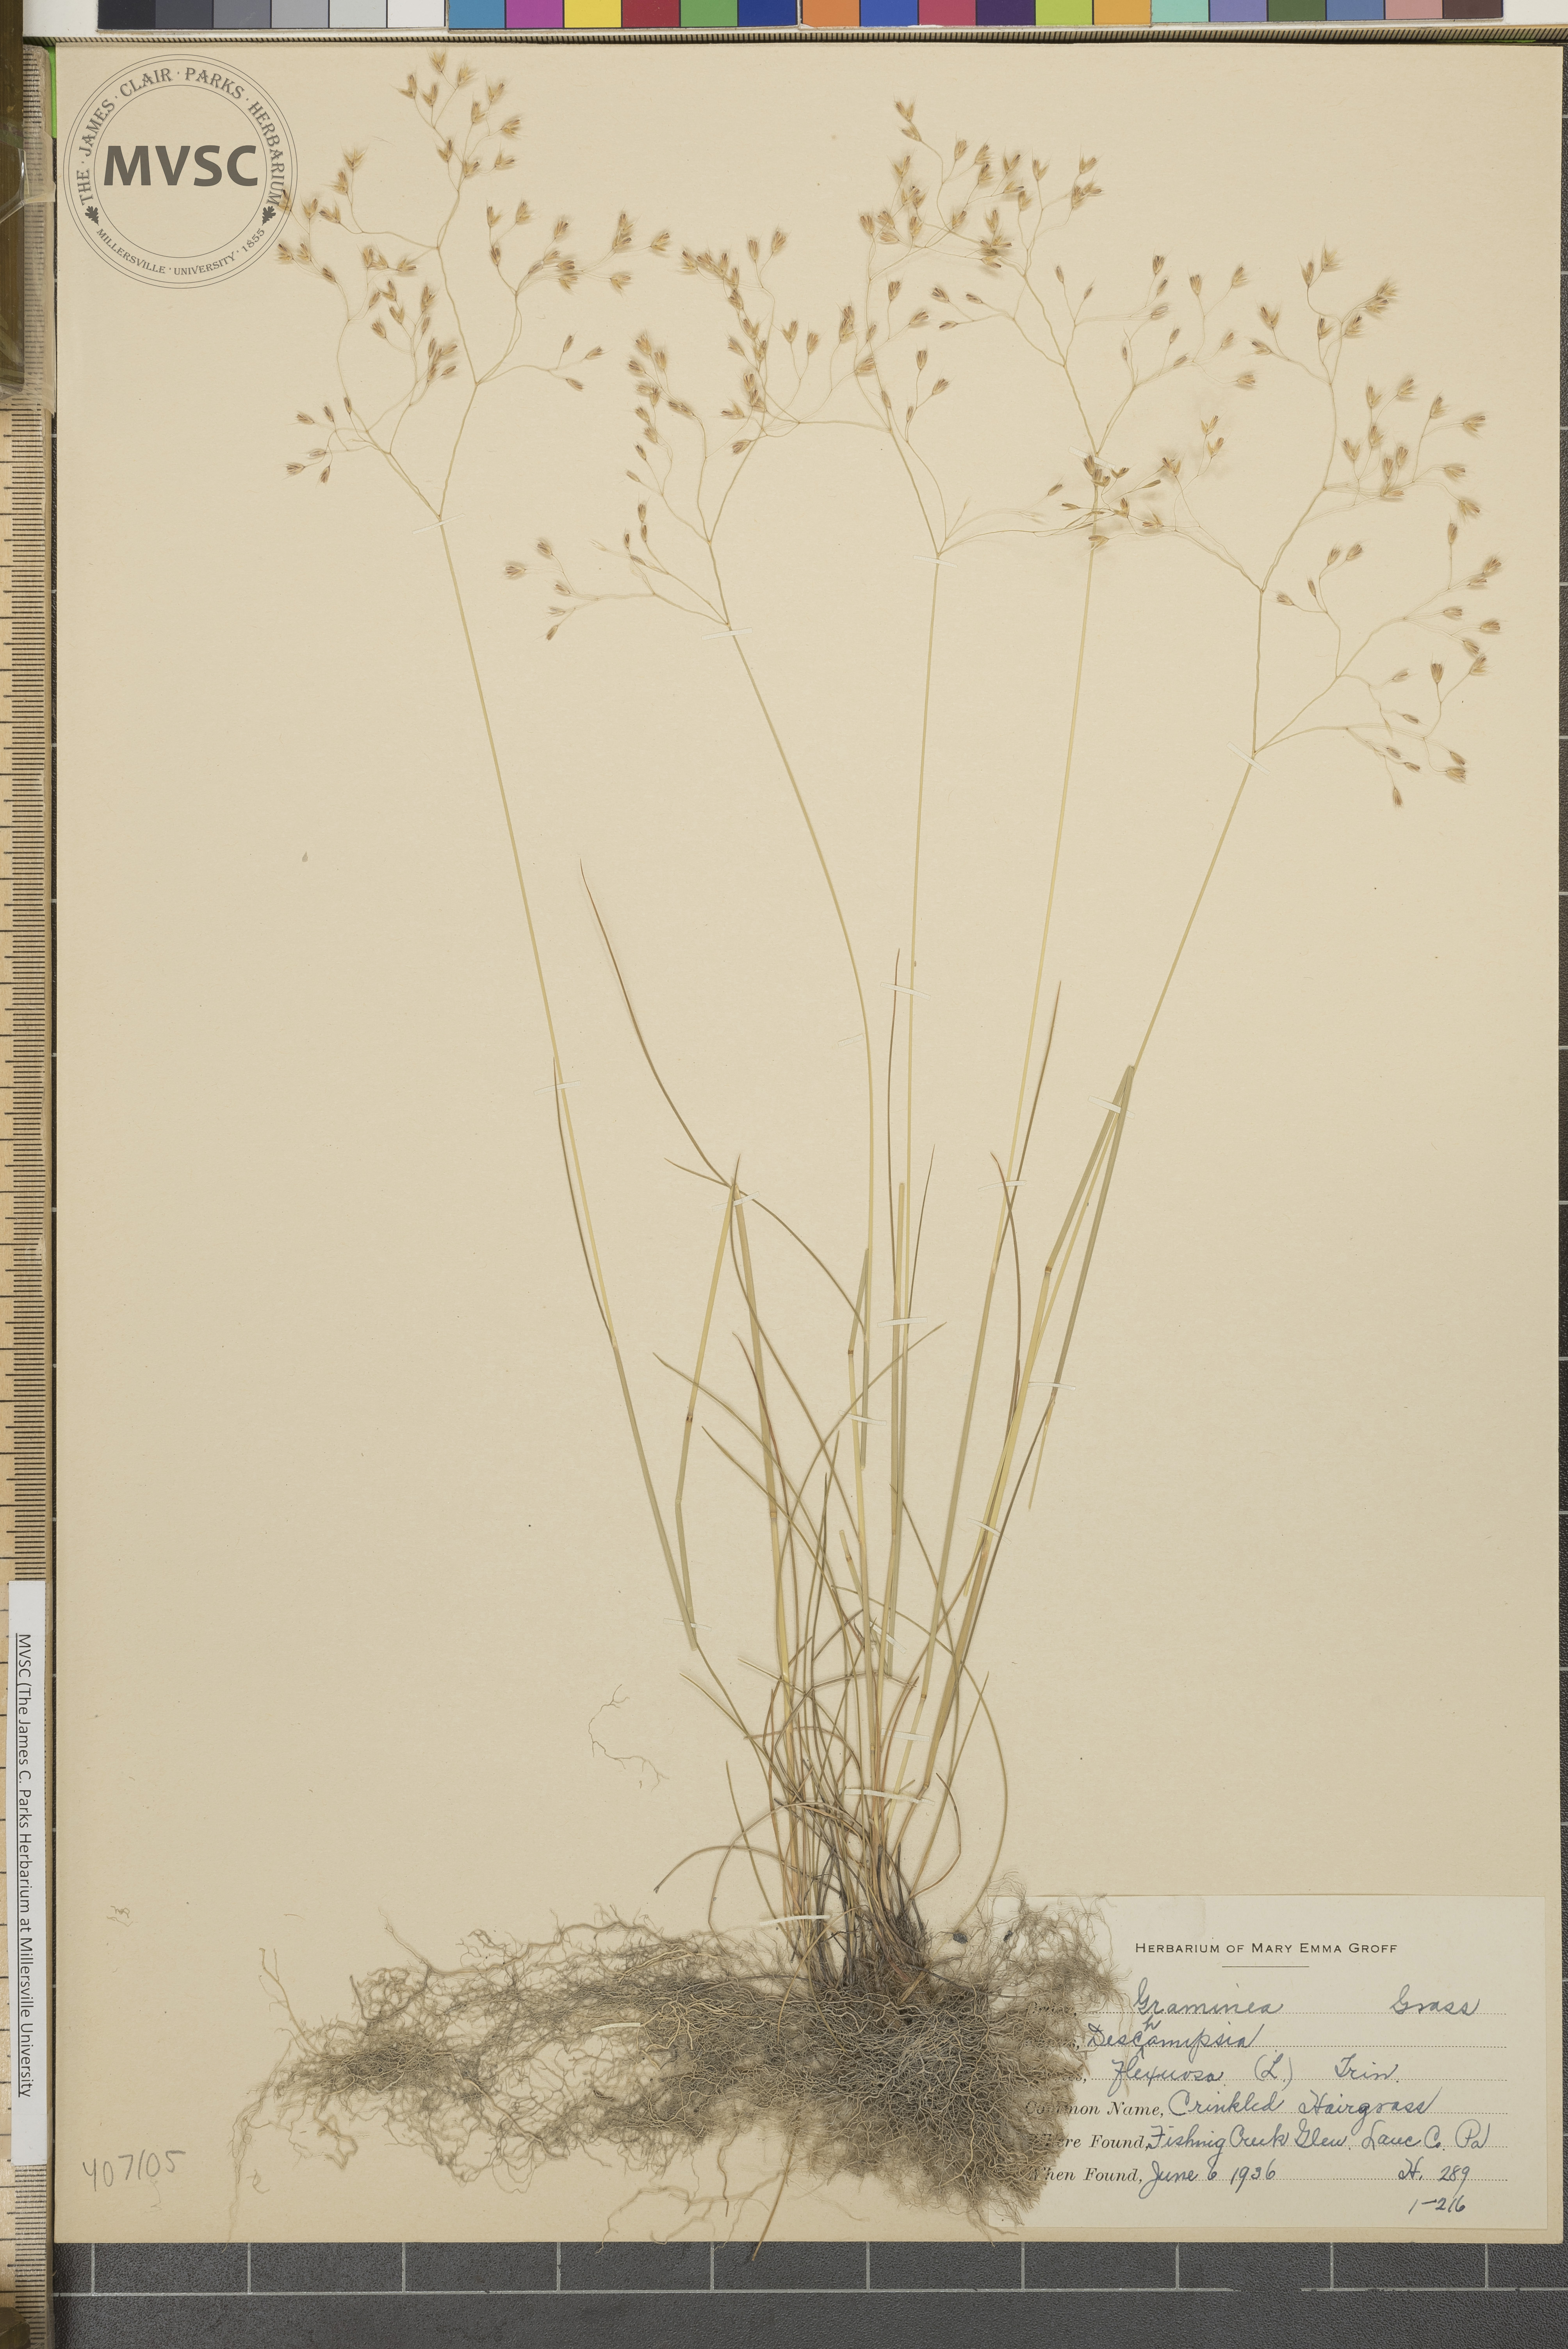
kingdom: Plantae
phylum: Tracheophyta
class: Liliopsida
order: Poales
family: Poaceae
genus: Avenella
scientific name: Avenella flexuosa
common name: Wavy hairgrass
